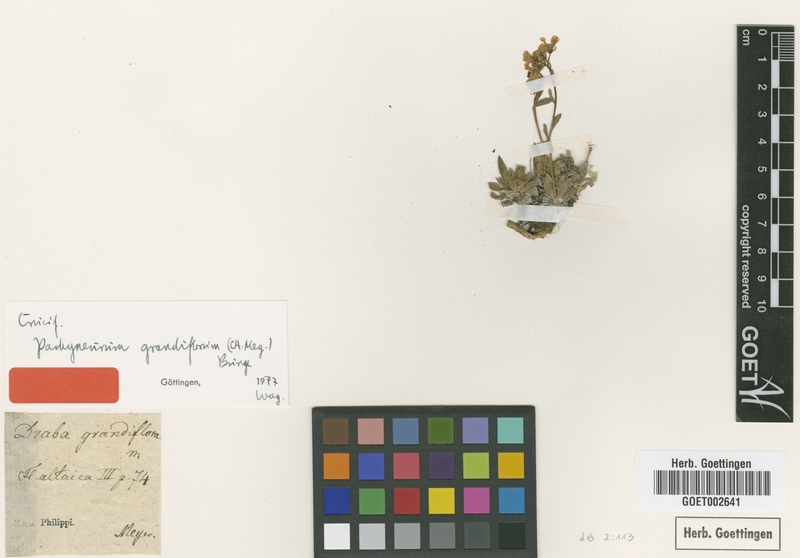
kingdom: Plantae
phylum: Tracheophyta
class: Magnoliopsida
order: Brassicales
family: Brassicaceae
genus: Pachyneurum
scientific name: Pachyneurum grandiflorum
